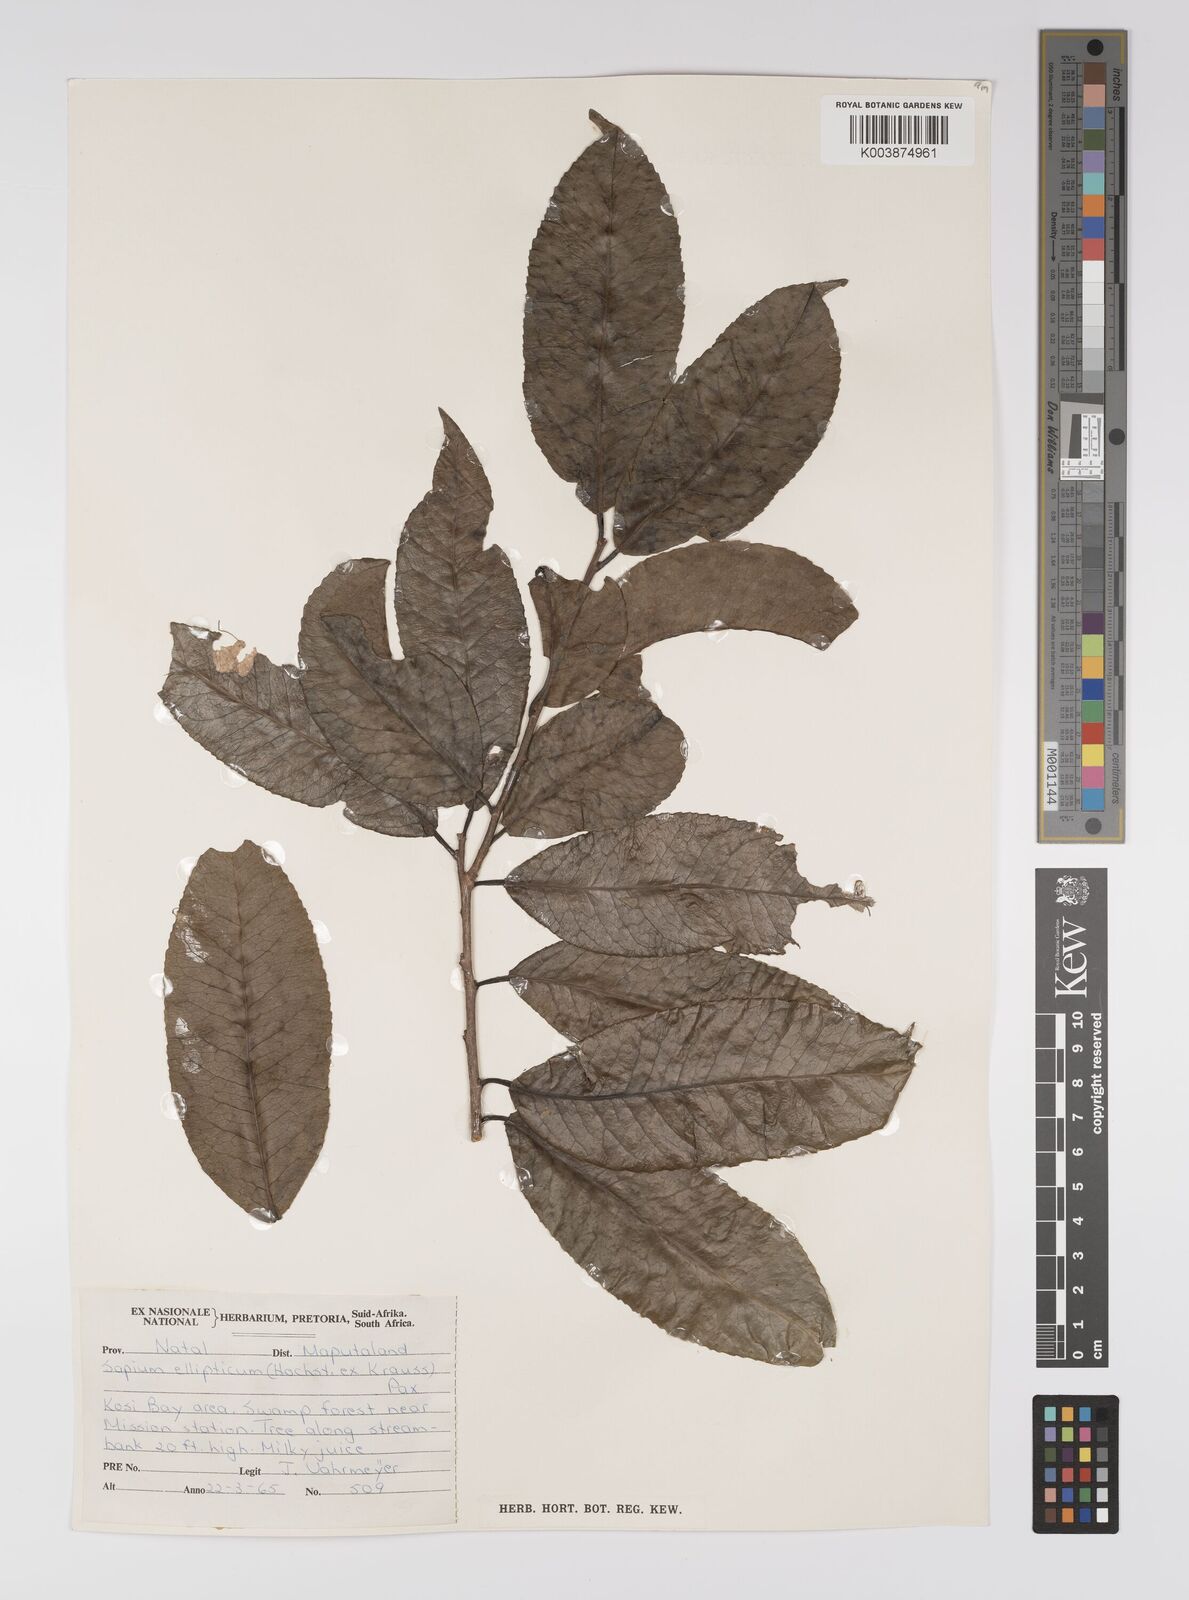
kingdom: Plantae
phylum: Tracheophyta
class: Magnoliopsida
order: Malpighiales
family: Euphorbiaceae
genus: Shirakiopsis
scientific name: Shirakiopsis elliptica
